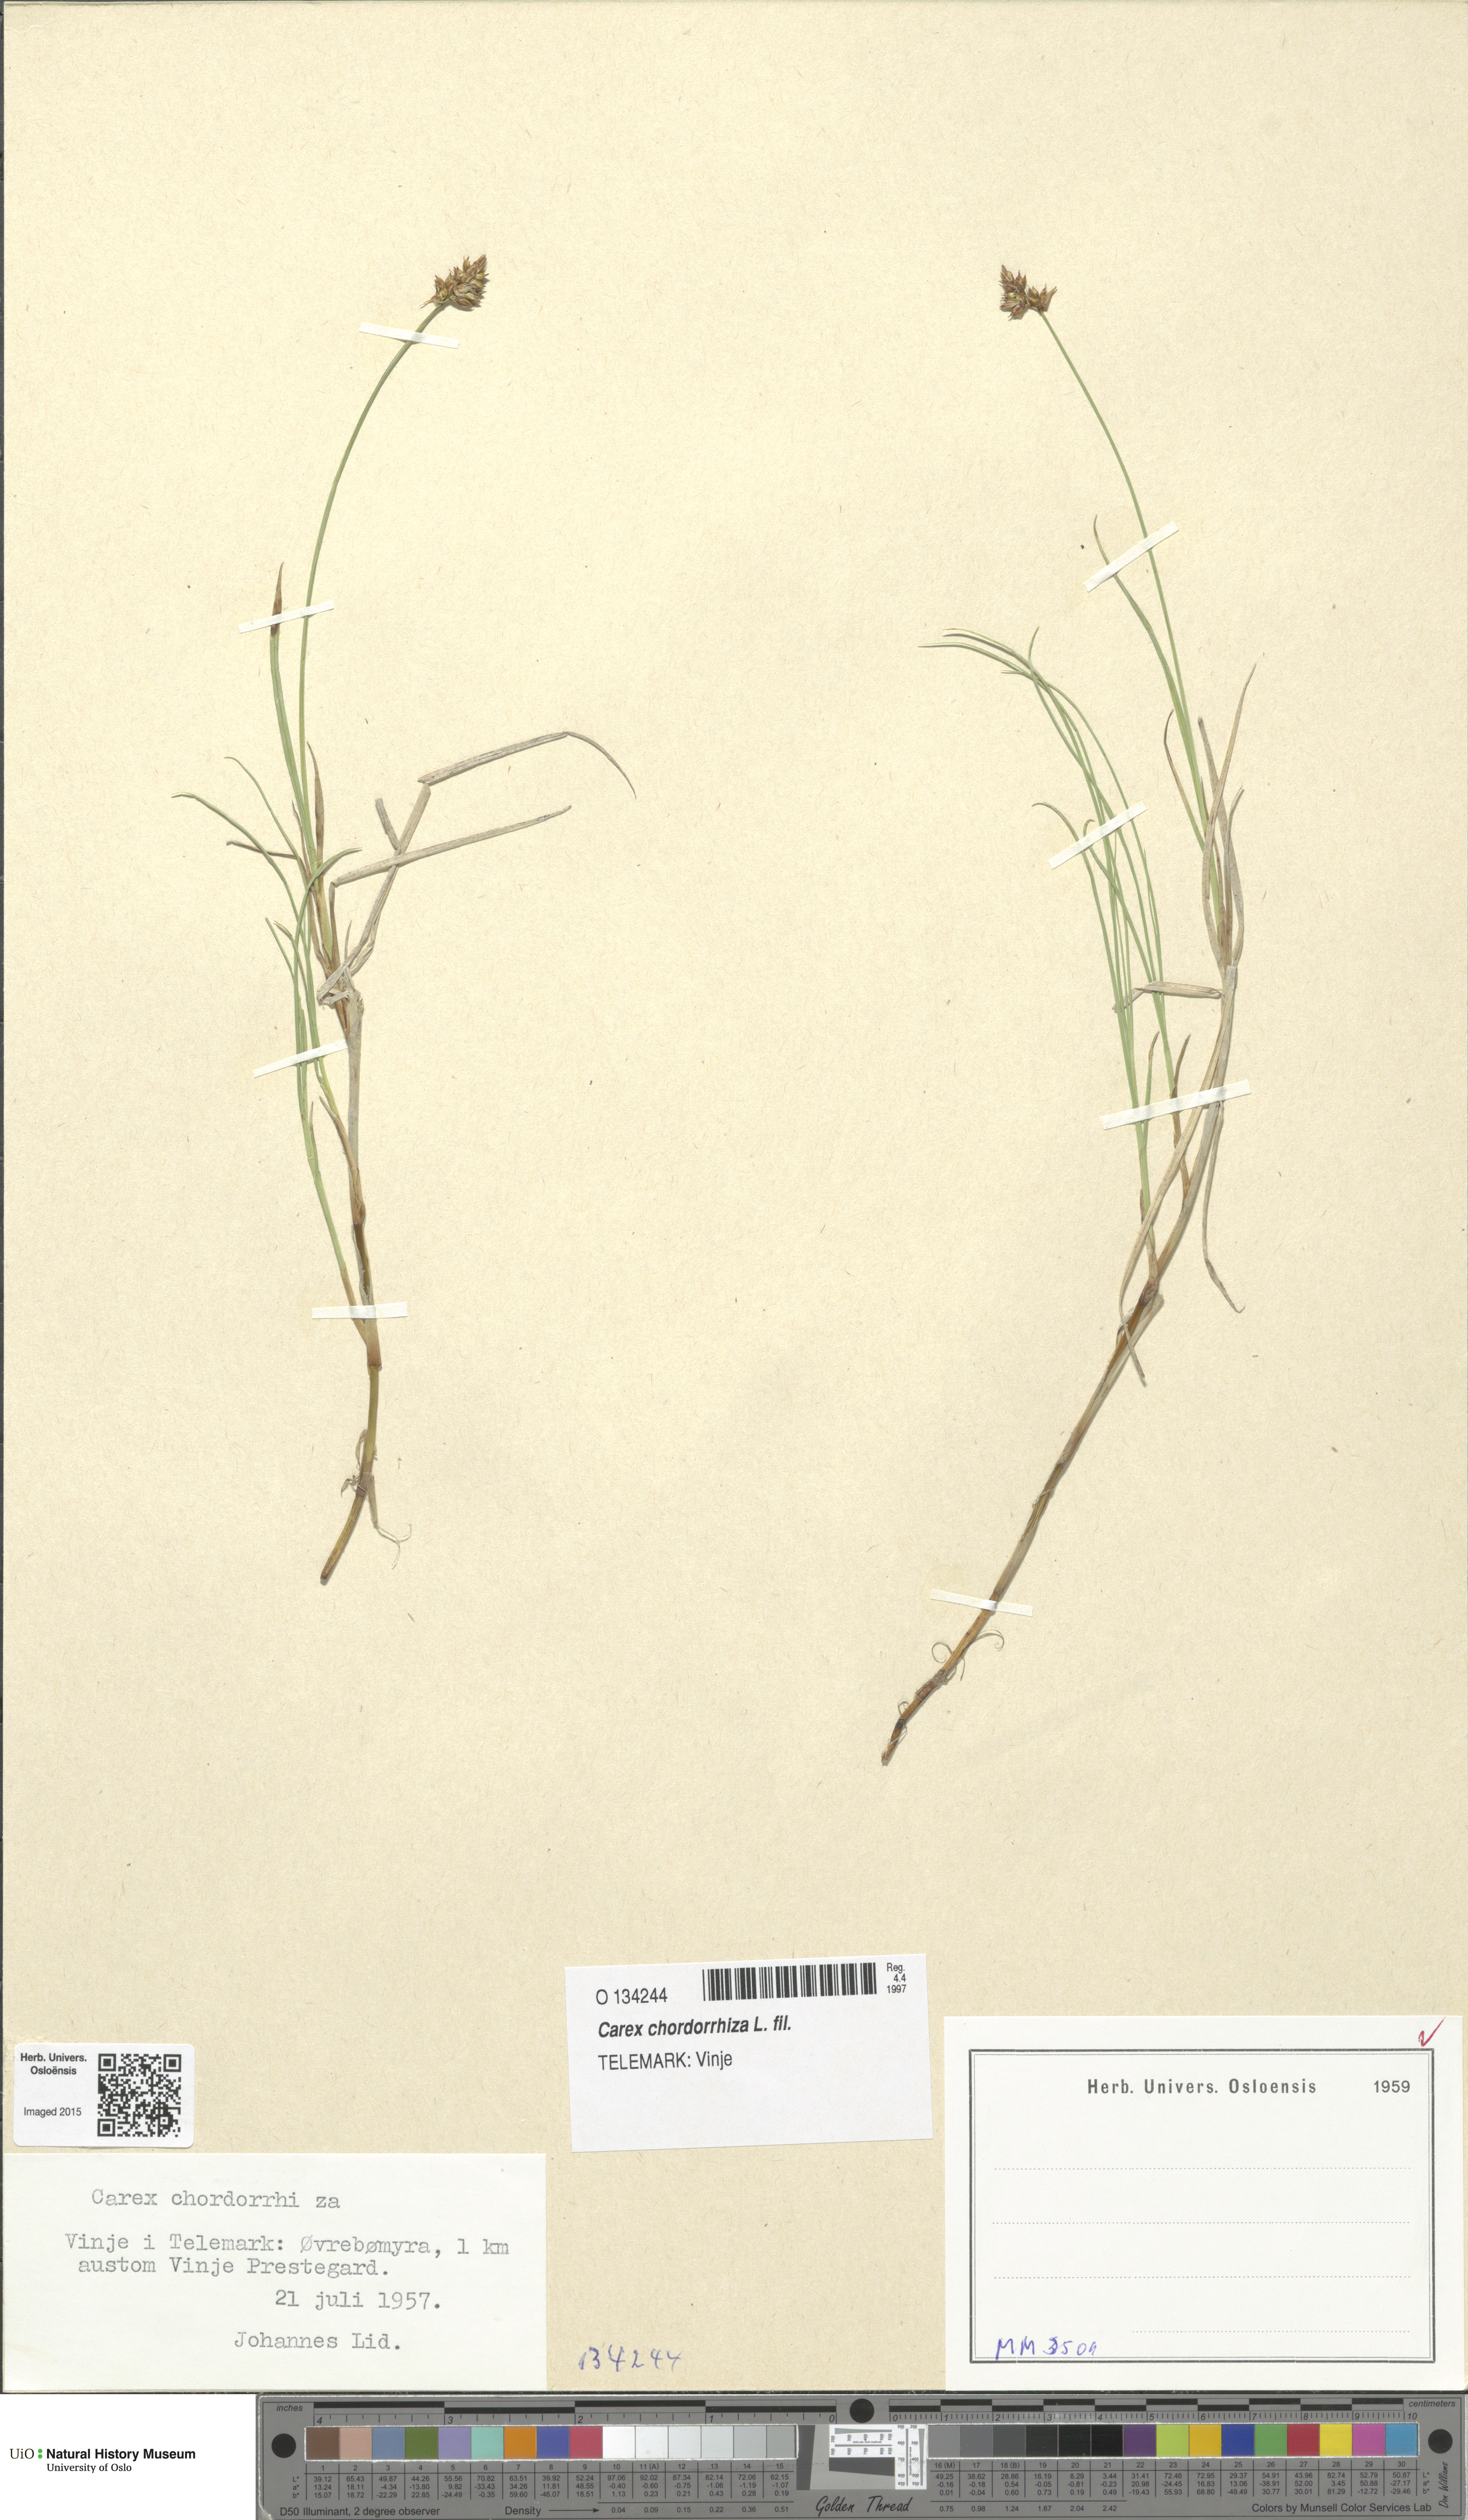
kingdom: Plantae
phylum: Tracheophyta
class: Liliopsida
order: Poales
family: Cyperaceae
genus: Carex
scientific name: Carex chordorrhiza
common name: String sedge
